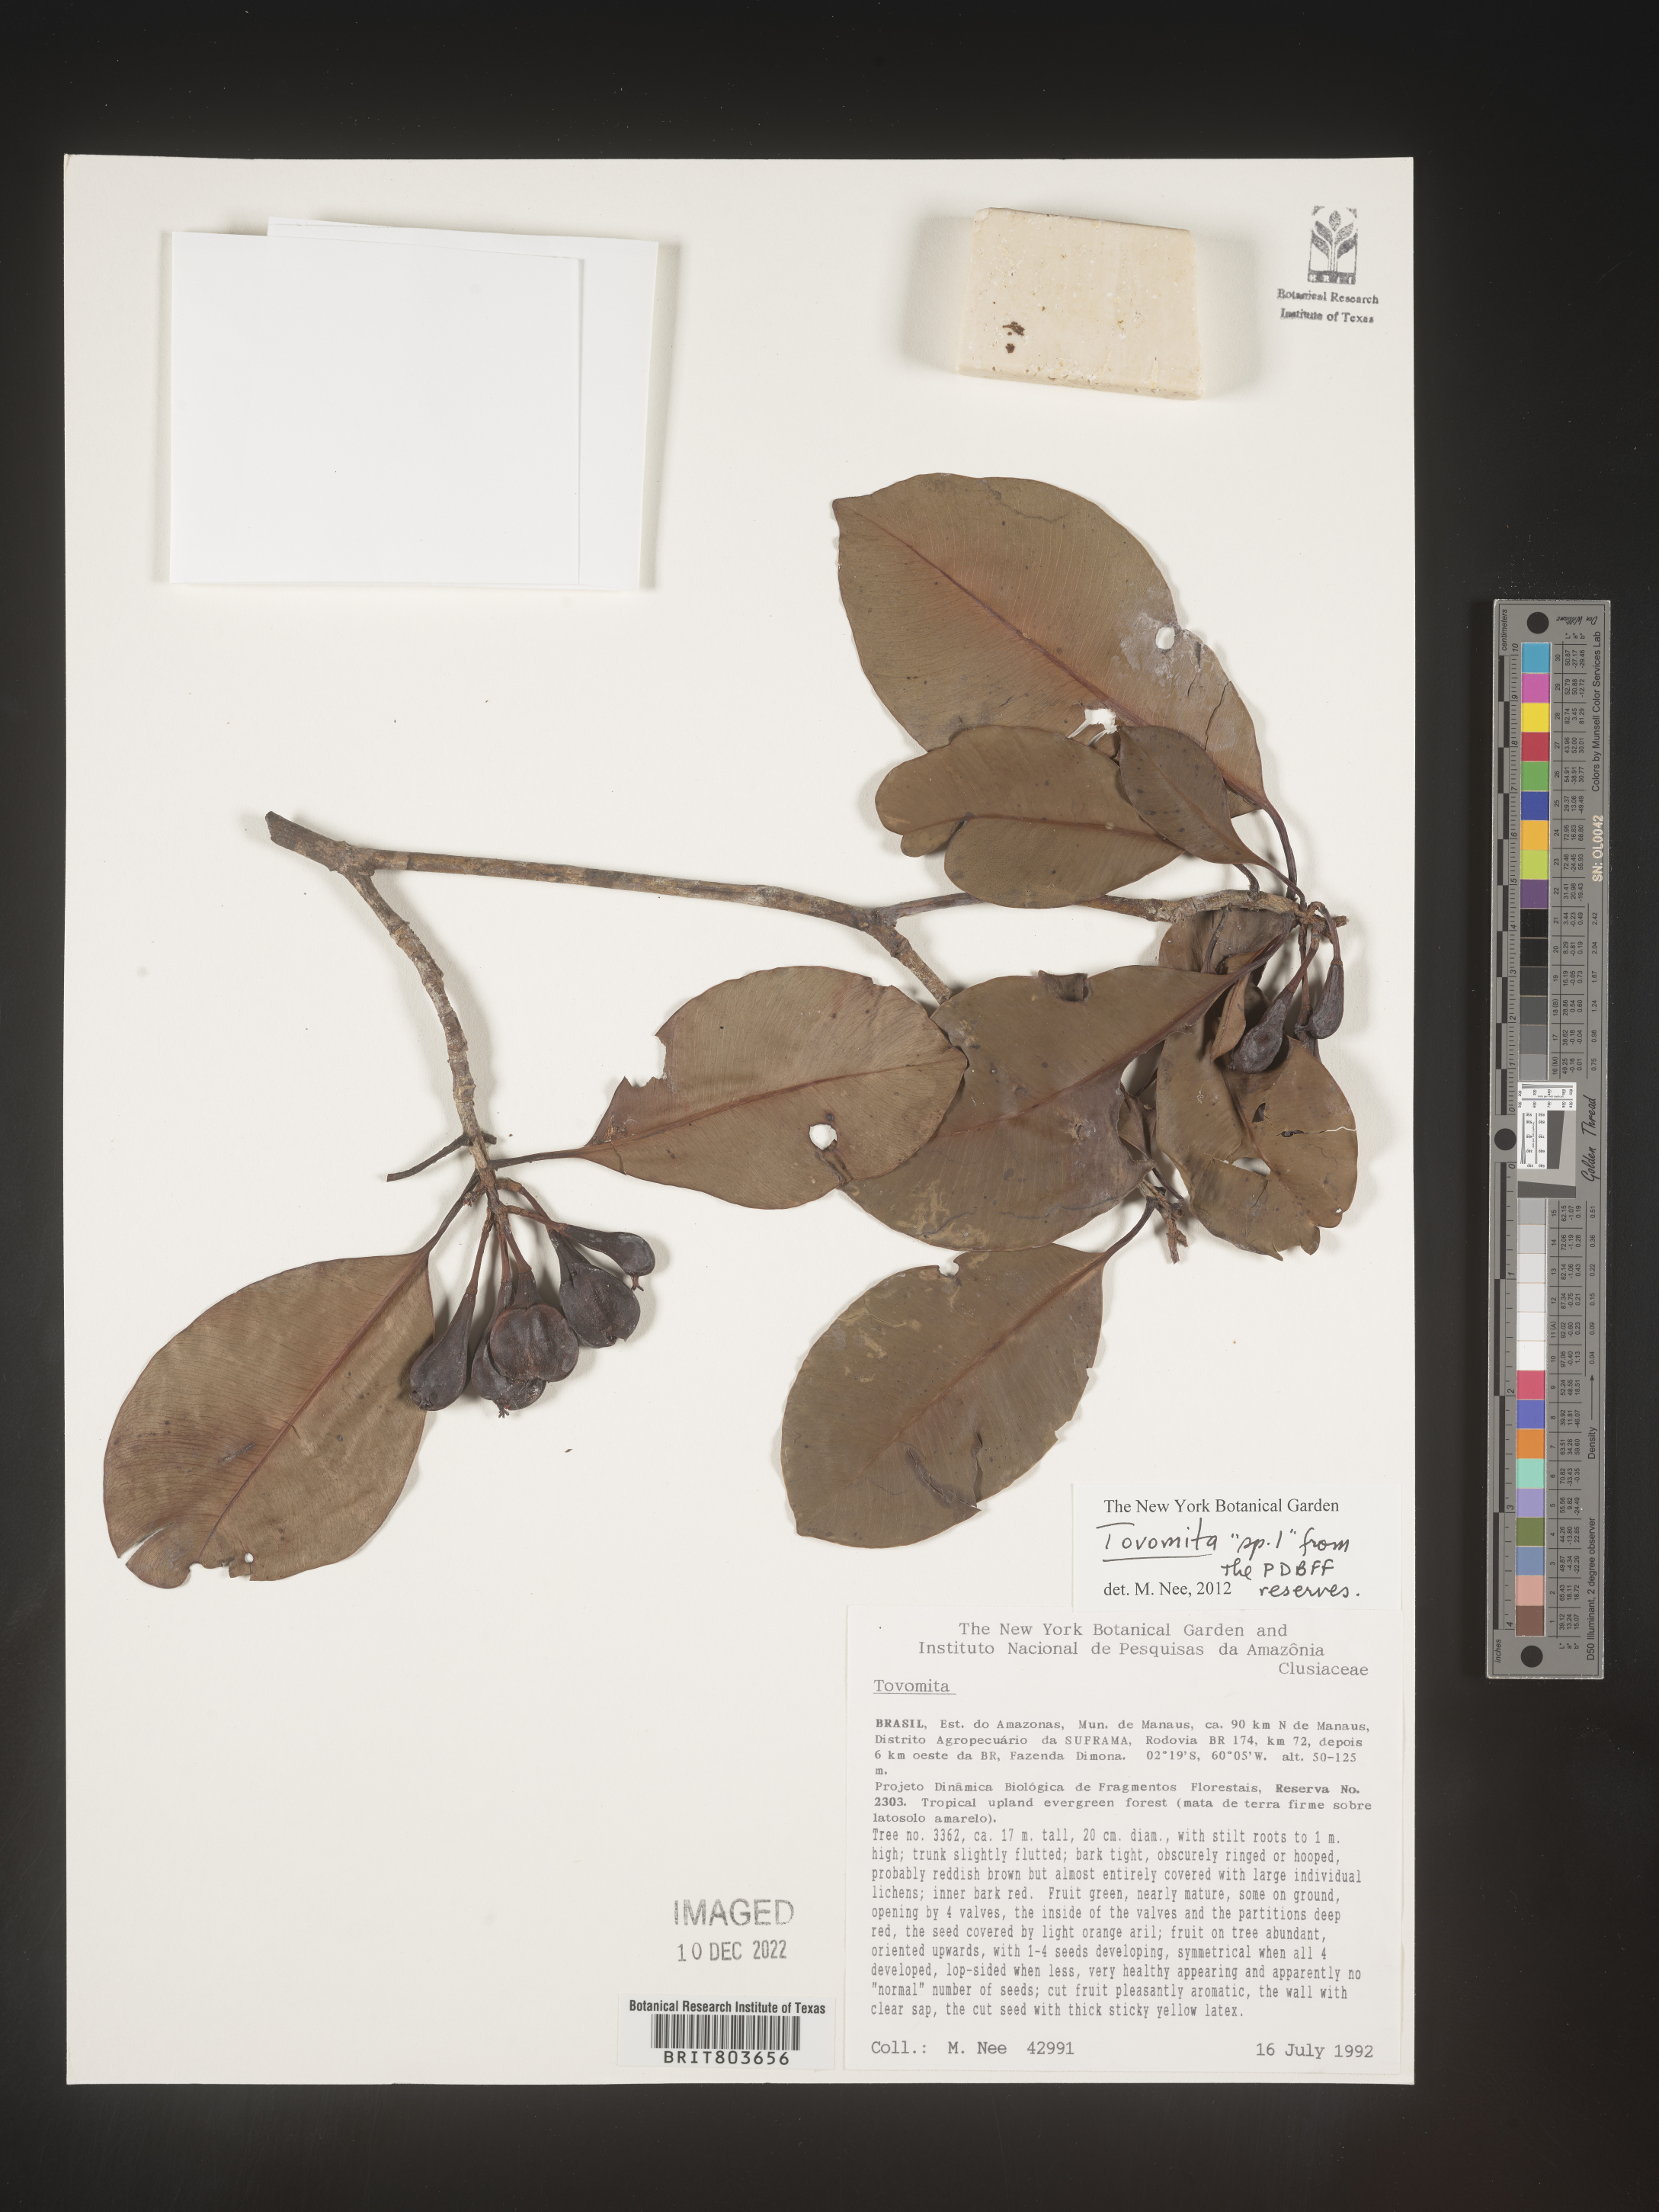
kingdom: Plantae
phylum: Tracheophyta
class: Magnoliopsida
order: Malpighiales
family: Clusiaceae
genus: Tovomita
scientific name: Tovomita
